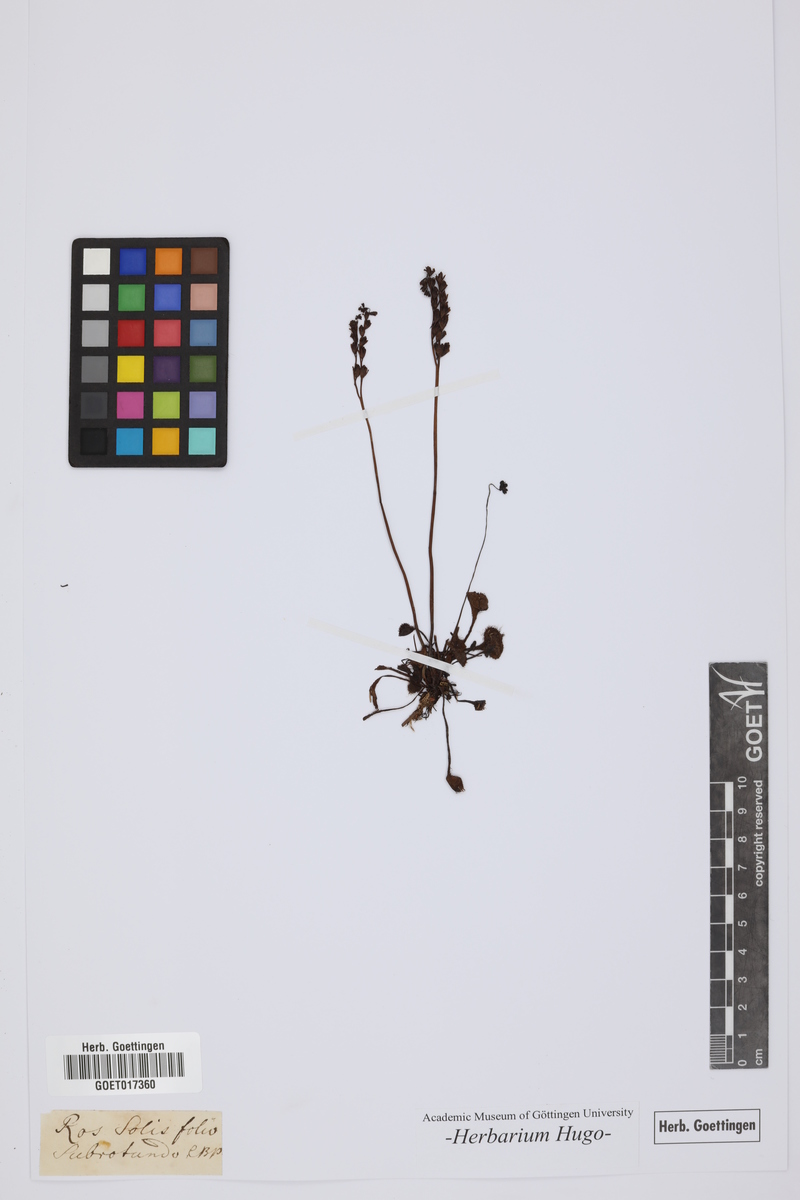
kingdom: Plantae
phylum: Tracheophyta
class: Magnoliopsida
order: Caryophyllales
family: Droseraceae
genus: Drosera
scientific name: Drosera rotundifolia
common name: Round-leaved sundew
